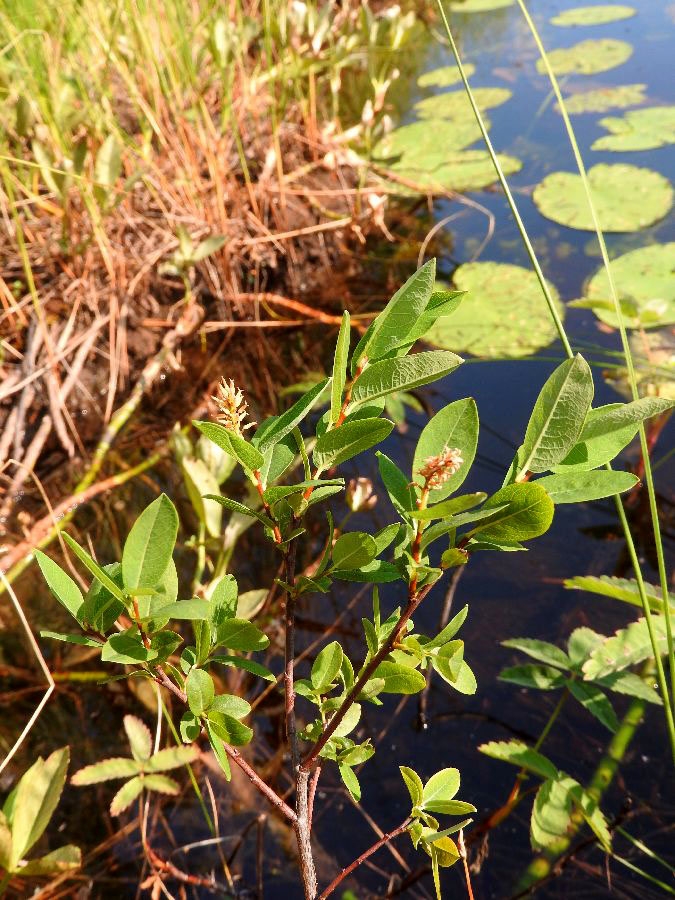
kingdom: Plantae
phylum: Tracheophyta
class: Magnoliopsida
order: Malpighiales
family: Salicaceae
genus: Salix
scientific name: Salix myrtilloides
